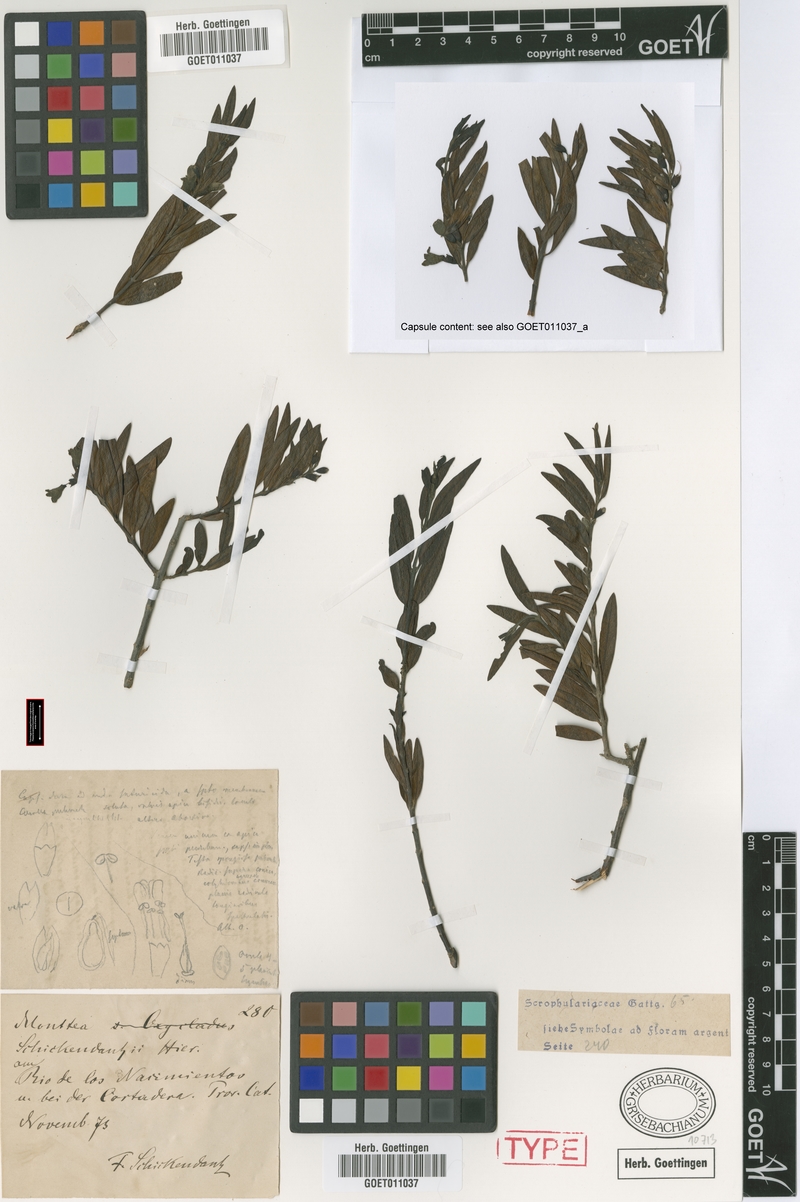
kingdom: Plantae
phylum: Tracheophyta
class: Magnoliopsida
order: Lamiales
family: Plantaginaceae
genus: Monttea
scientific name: Monttea schickendantzii
